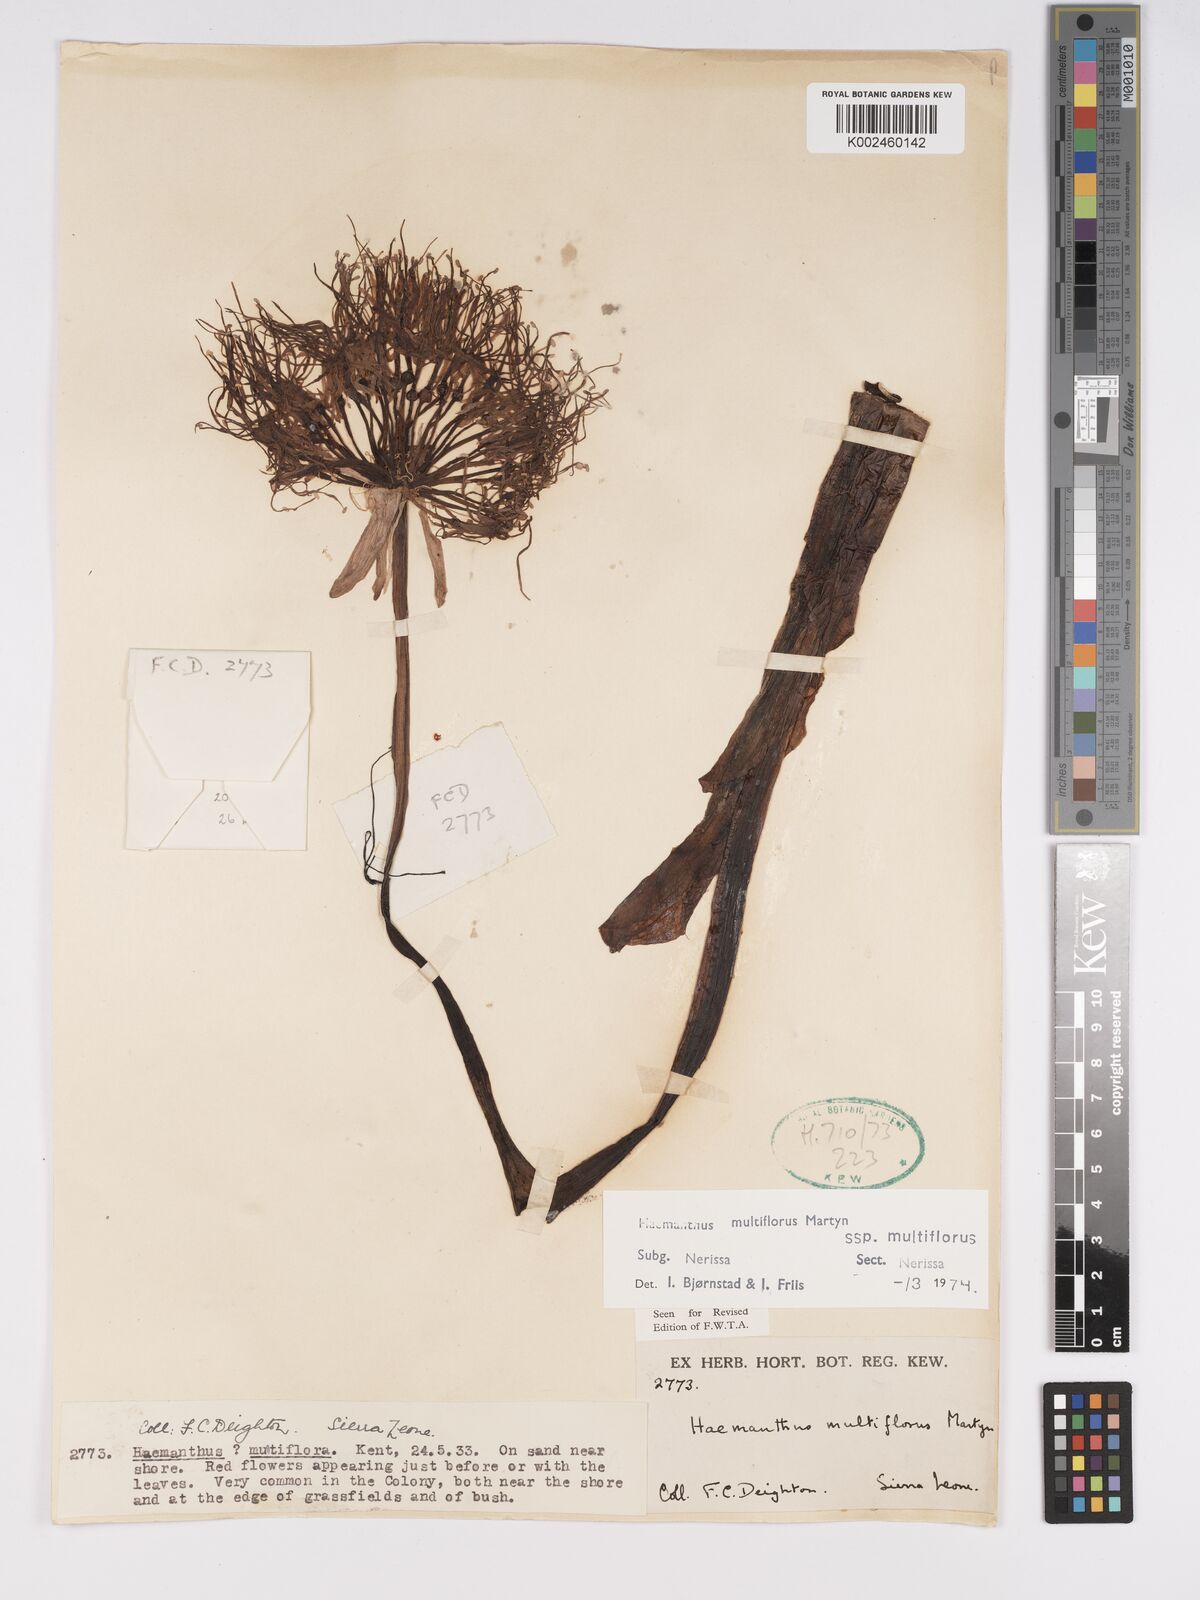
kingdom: Plantae
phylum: Tracheophyta
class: Liliopsida
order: Asparagales
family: Amaryllidaceae
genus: Scadoxus
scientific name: Scadoxus multiflorus
